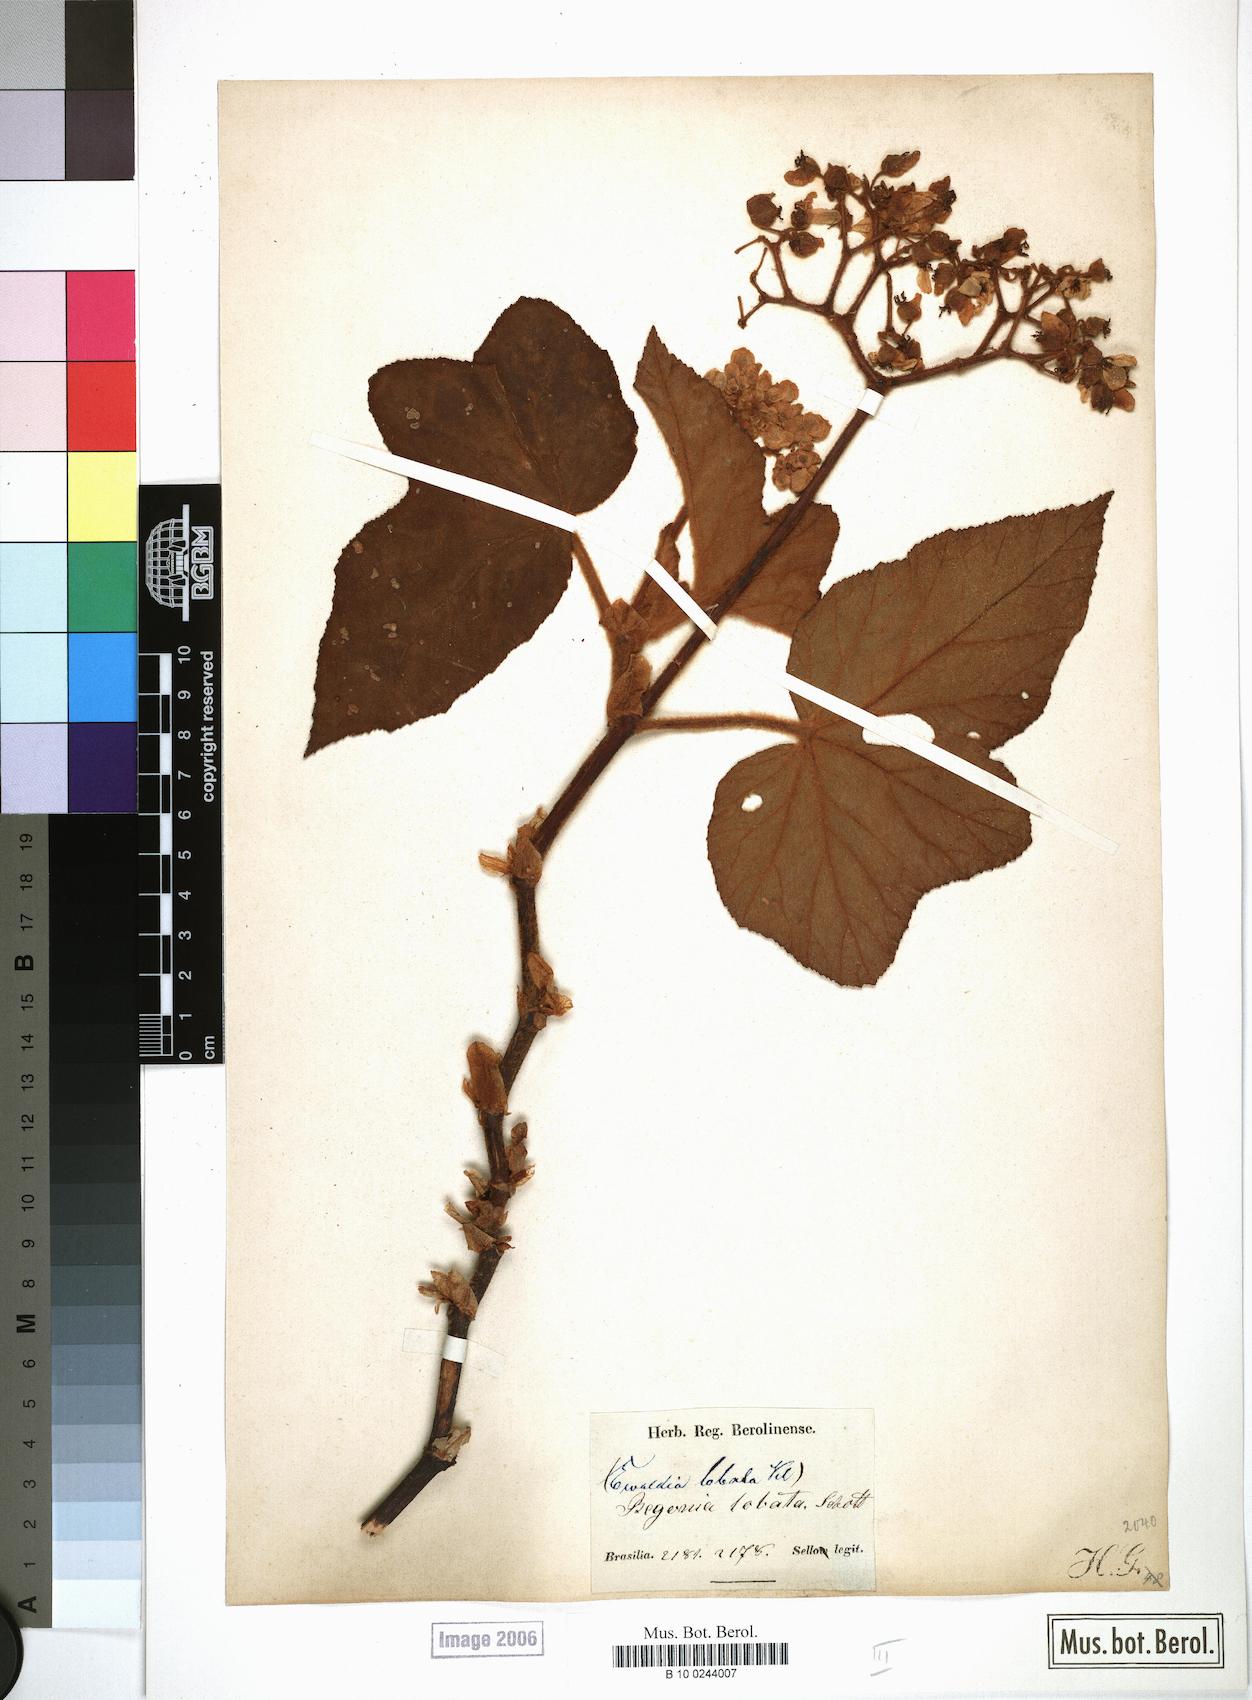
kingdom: Plantae
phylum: Tracheophyta
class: Magnoliopsida
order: Cucurbitales
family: Begoniaceae
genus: Begonia
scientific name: Begonia rufa
